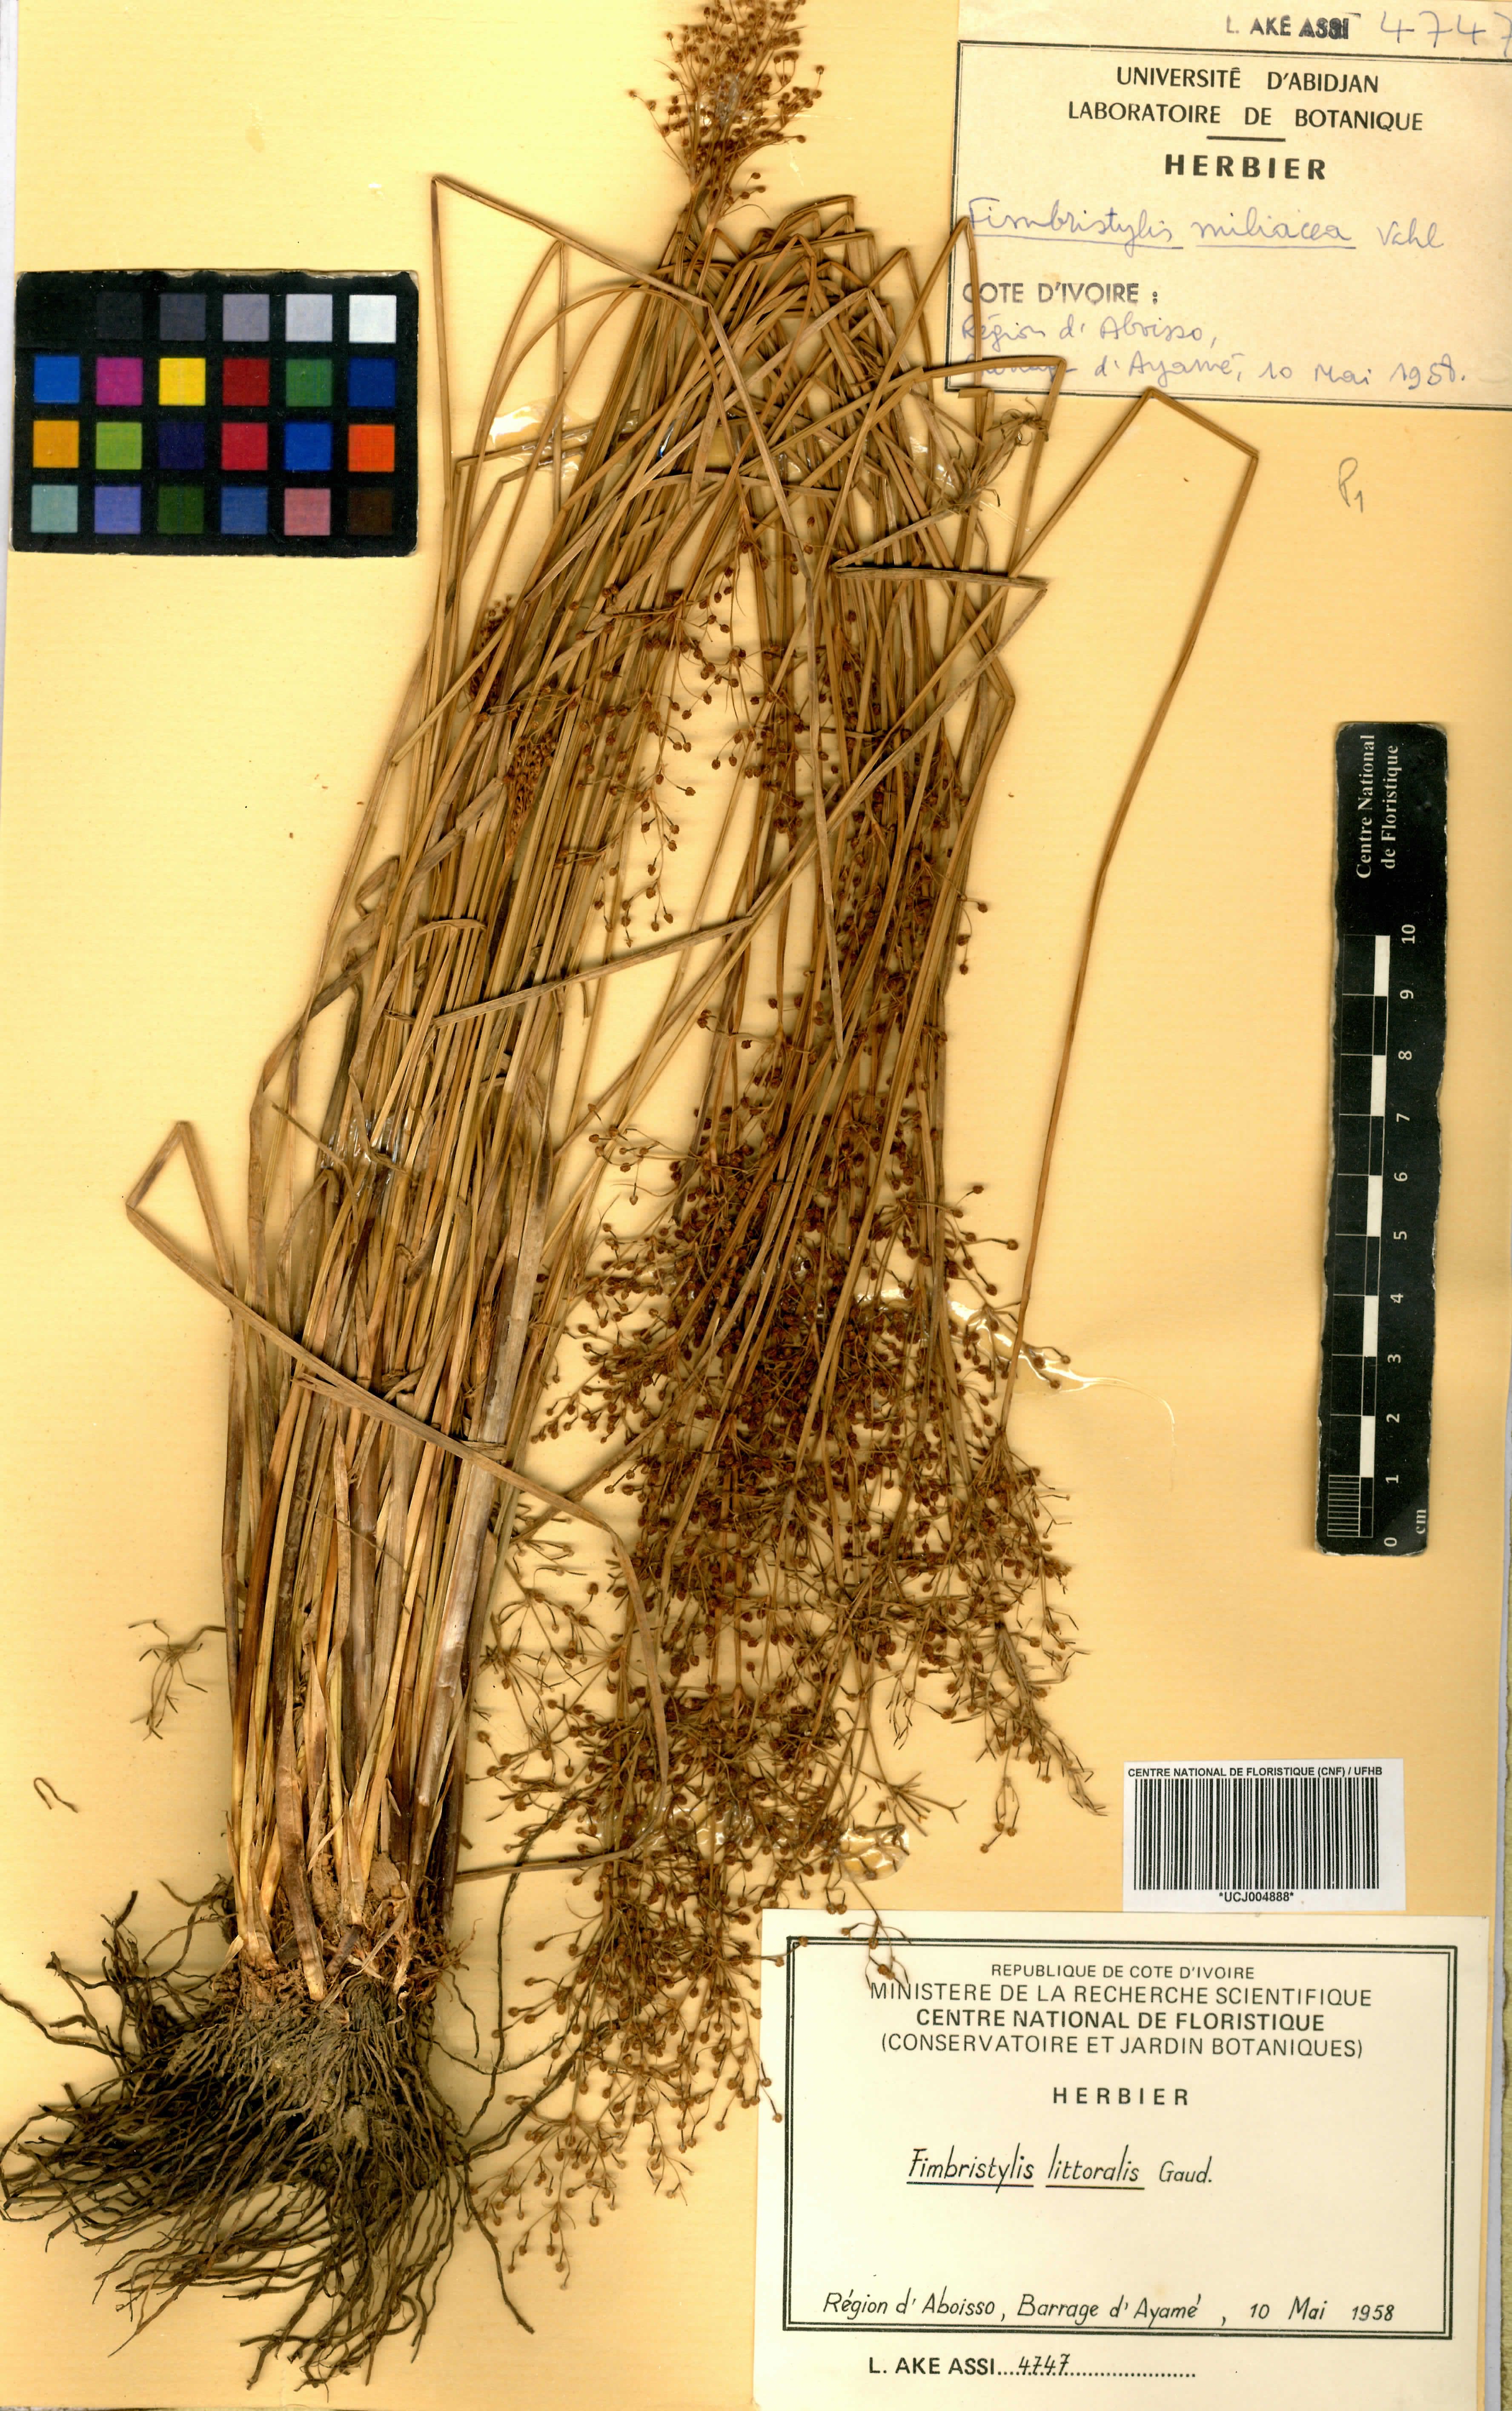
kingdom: Plantae
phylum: Tracheophyta
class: Liliopsida
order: Poales
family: Cyperaceae
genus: Fimbristylis
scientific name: Fimbristylis littoralis
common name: Fimbry
